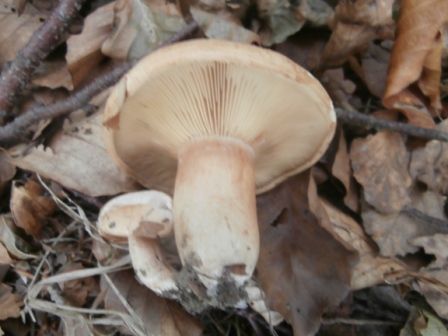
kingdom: Fungi
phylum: Basidiomycota
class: Agaricomycetes
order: Russulales
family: Russulaceae
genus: Lactarius
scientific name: Lactarius quietus
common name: ege-mælkehat
